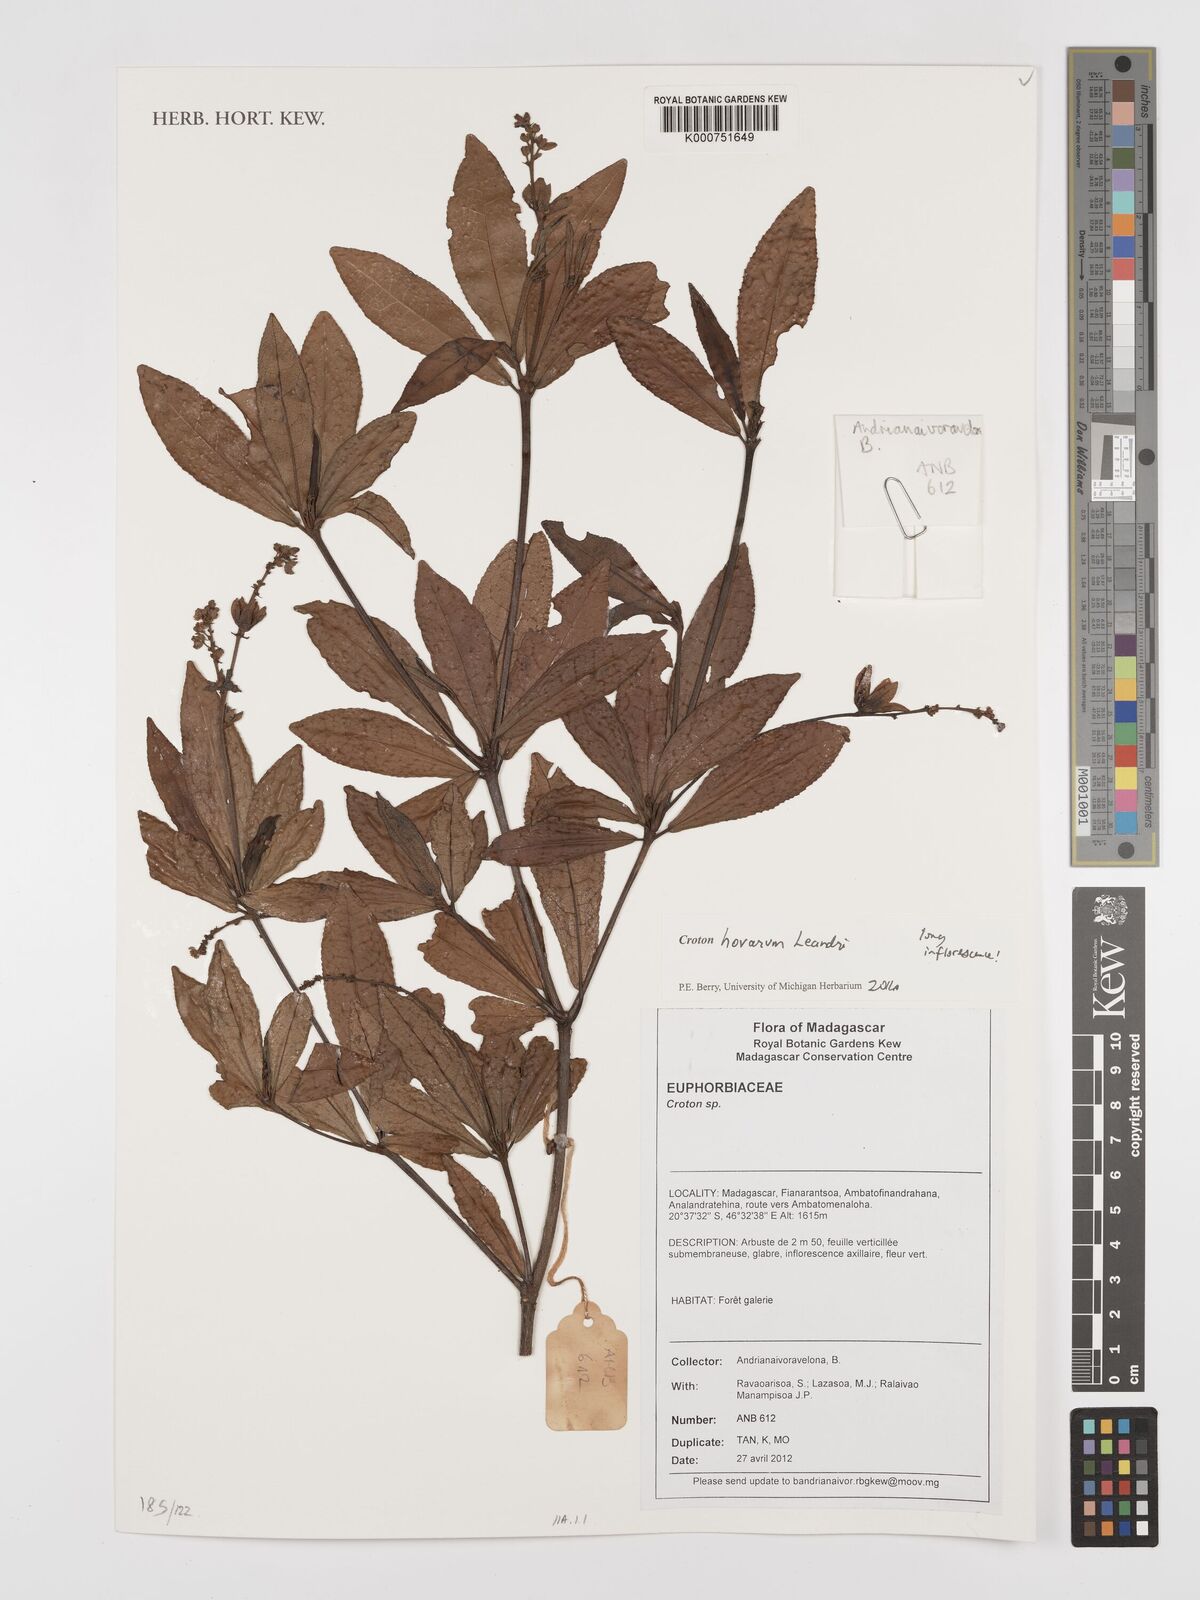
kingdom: Plantae
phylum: Tracheophyta
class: Magnoliopsida
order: Malpighiales
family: Euphorbiaceae
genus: Croton
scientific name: Croton hovarum
